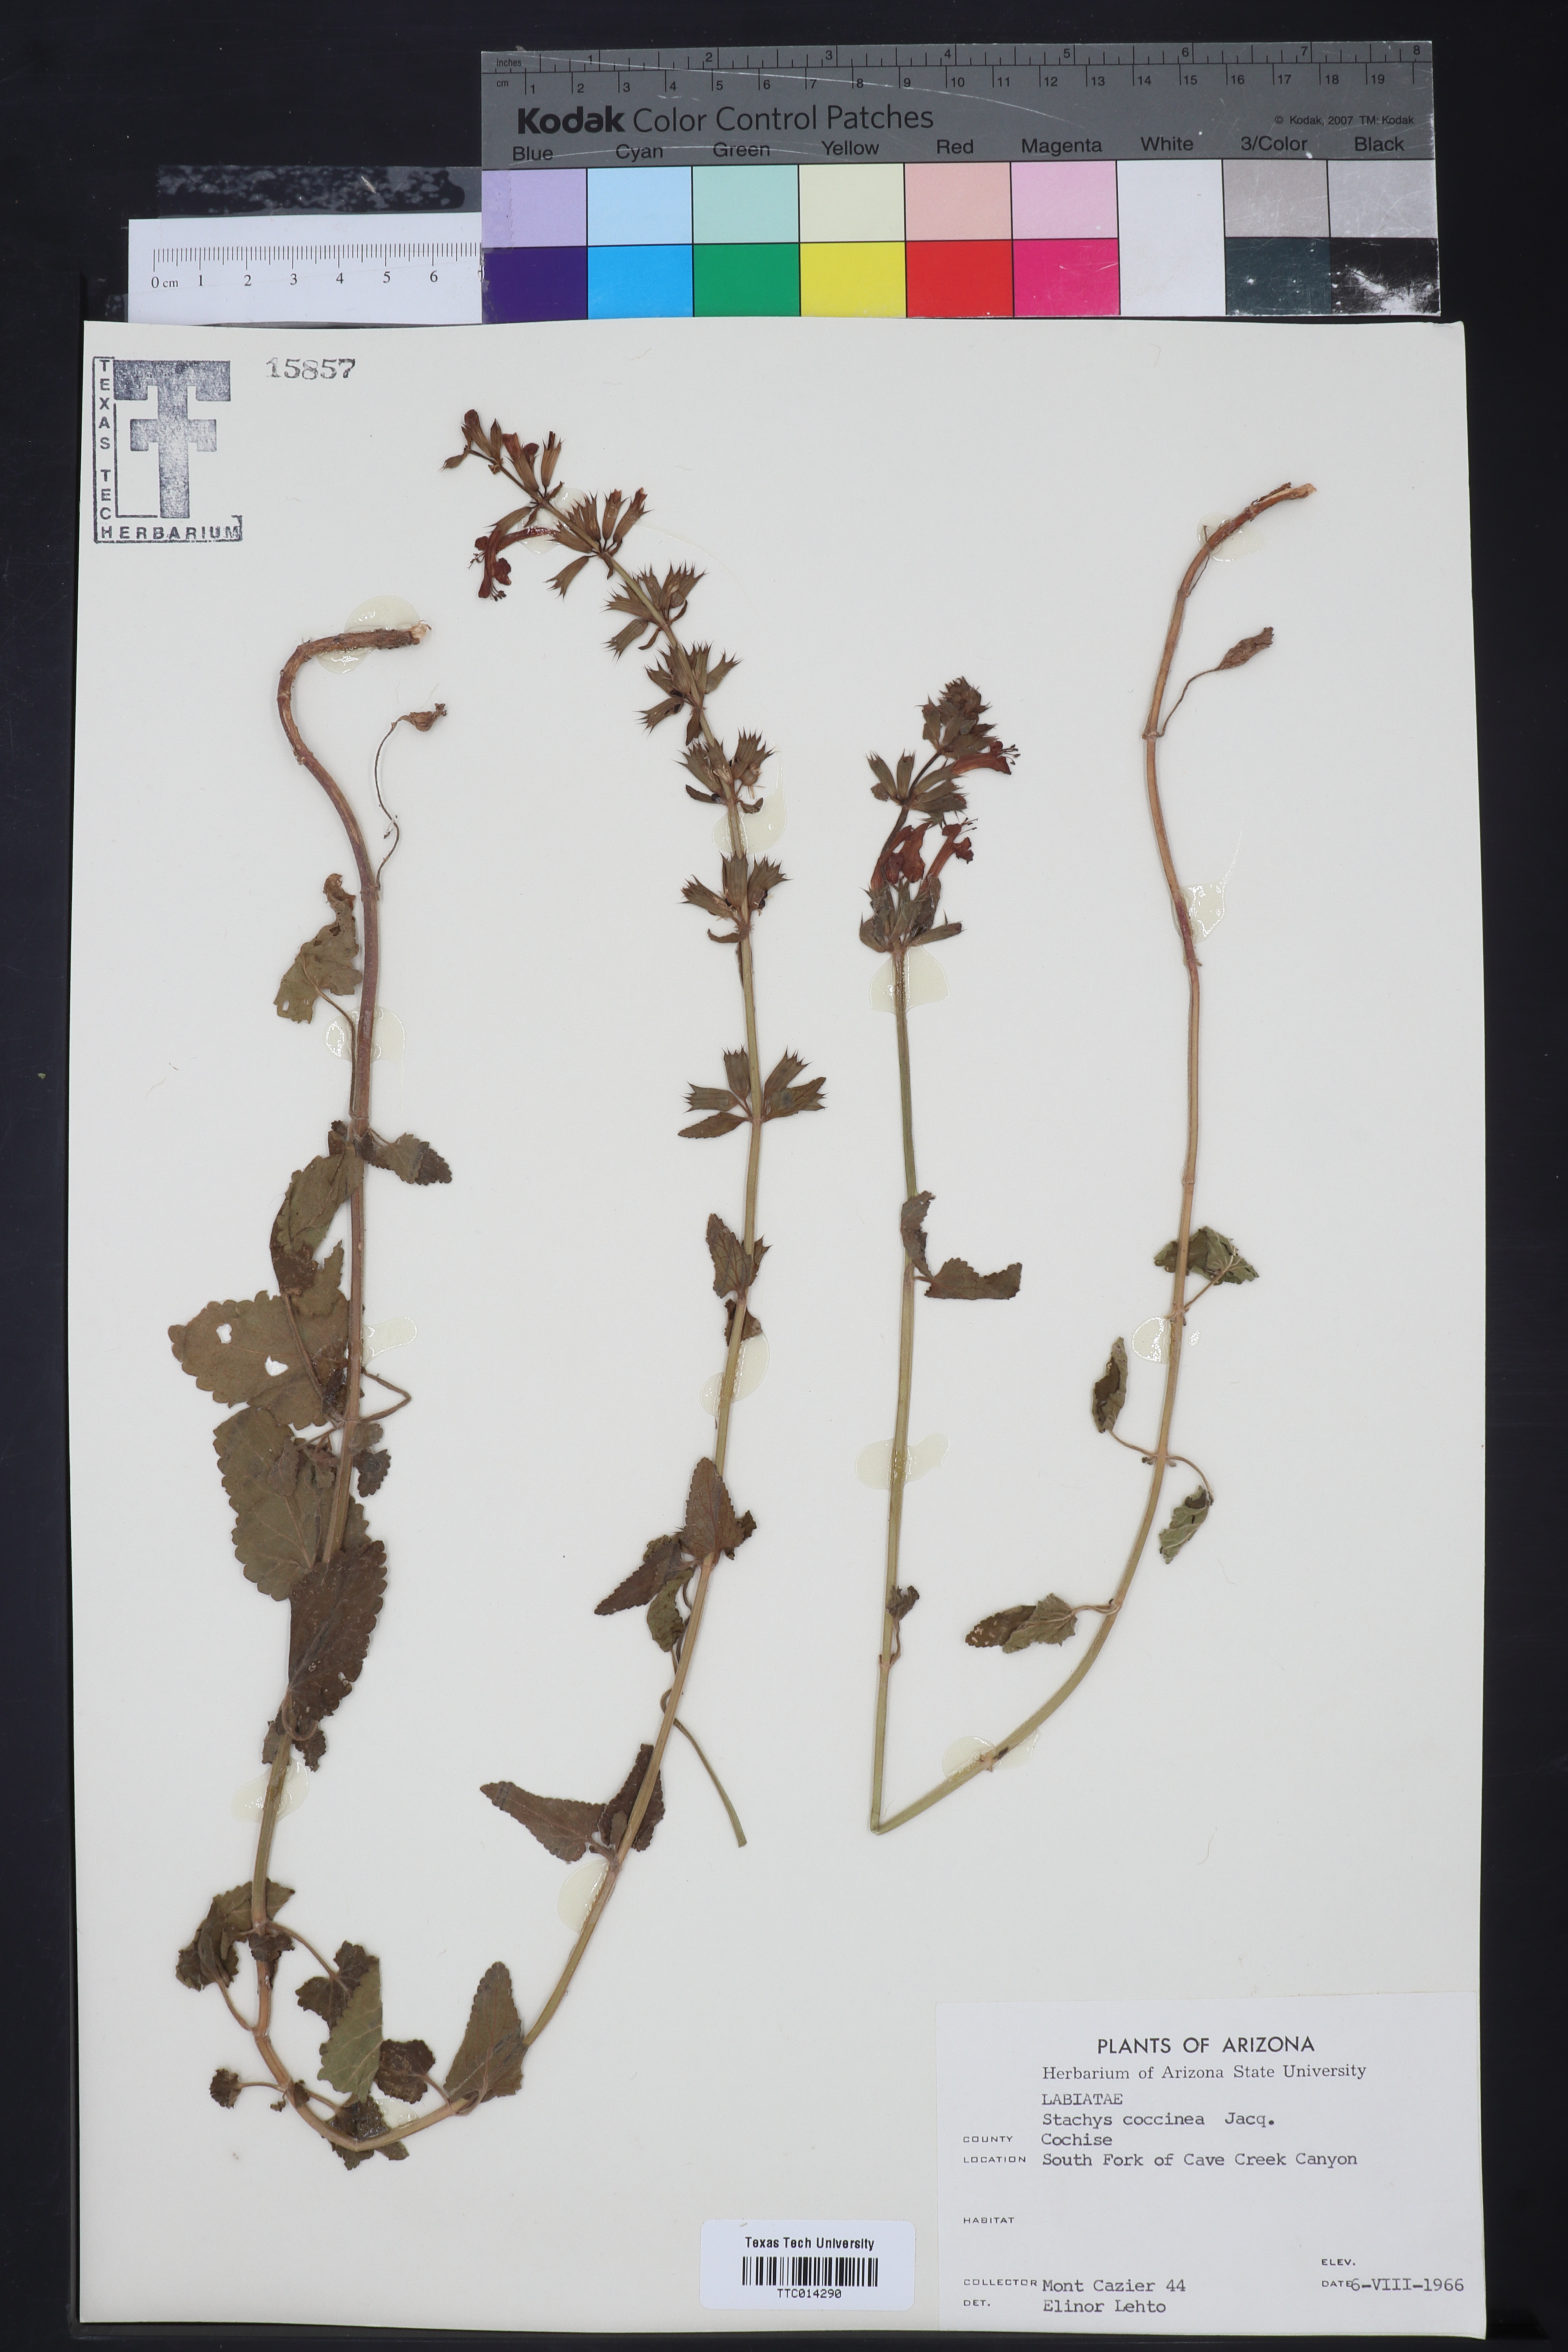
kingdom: Plantae
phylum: Tracheophyta
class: Magnoliopsida
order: Lamiales
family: Lamiaceae
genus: Stachys
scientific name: Stachys coccinea
